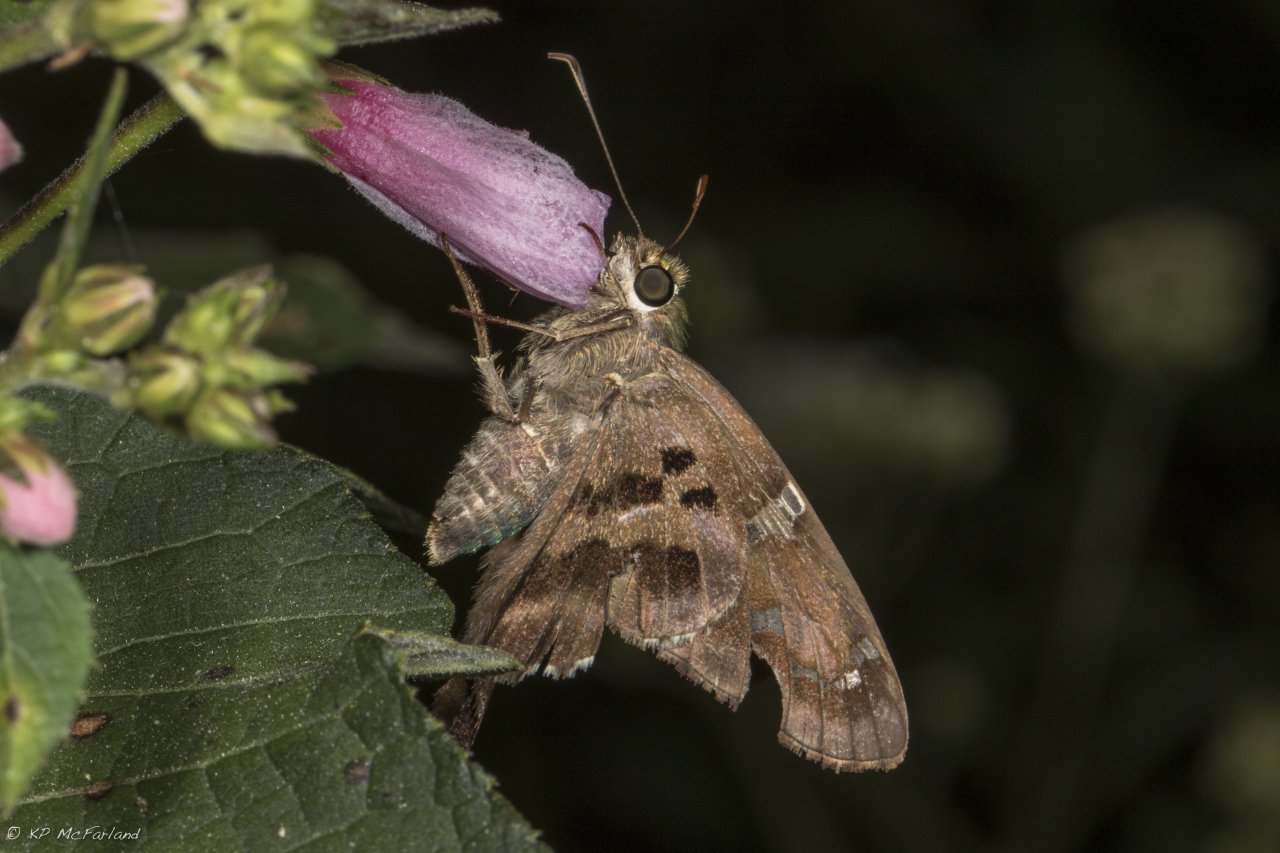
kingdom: Animalia
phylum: Arthropoda
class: Insecta
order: Lepidoptera
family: Hesperiidae
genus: Urbanus
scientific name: Urbanus proteus
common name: Long-tailed Skipper
